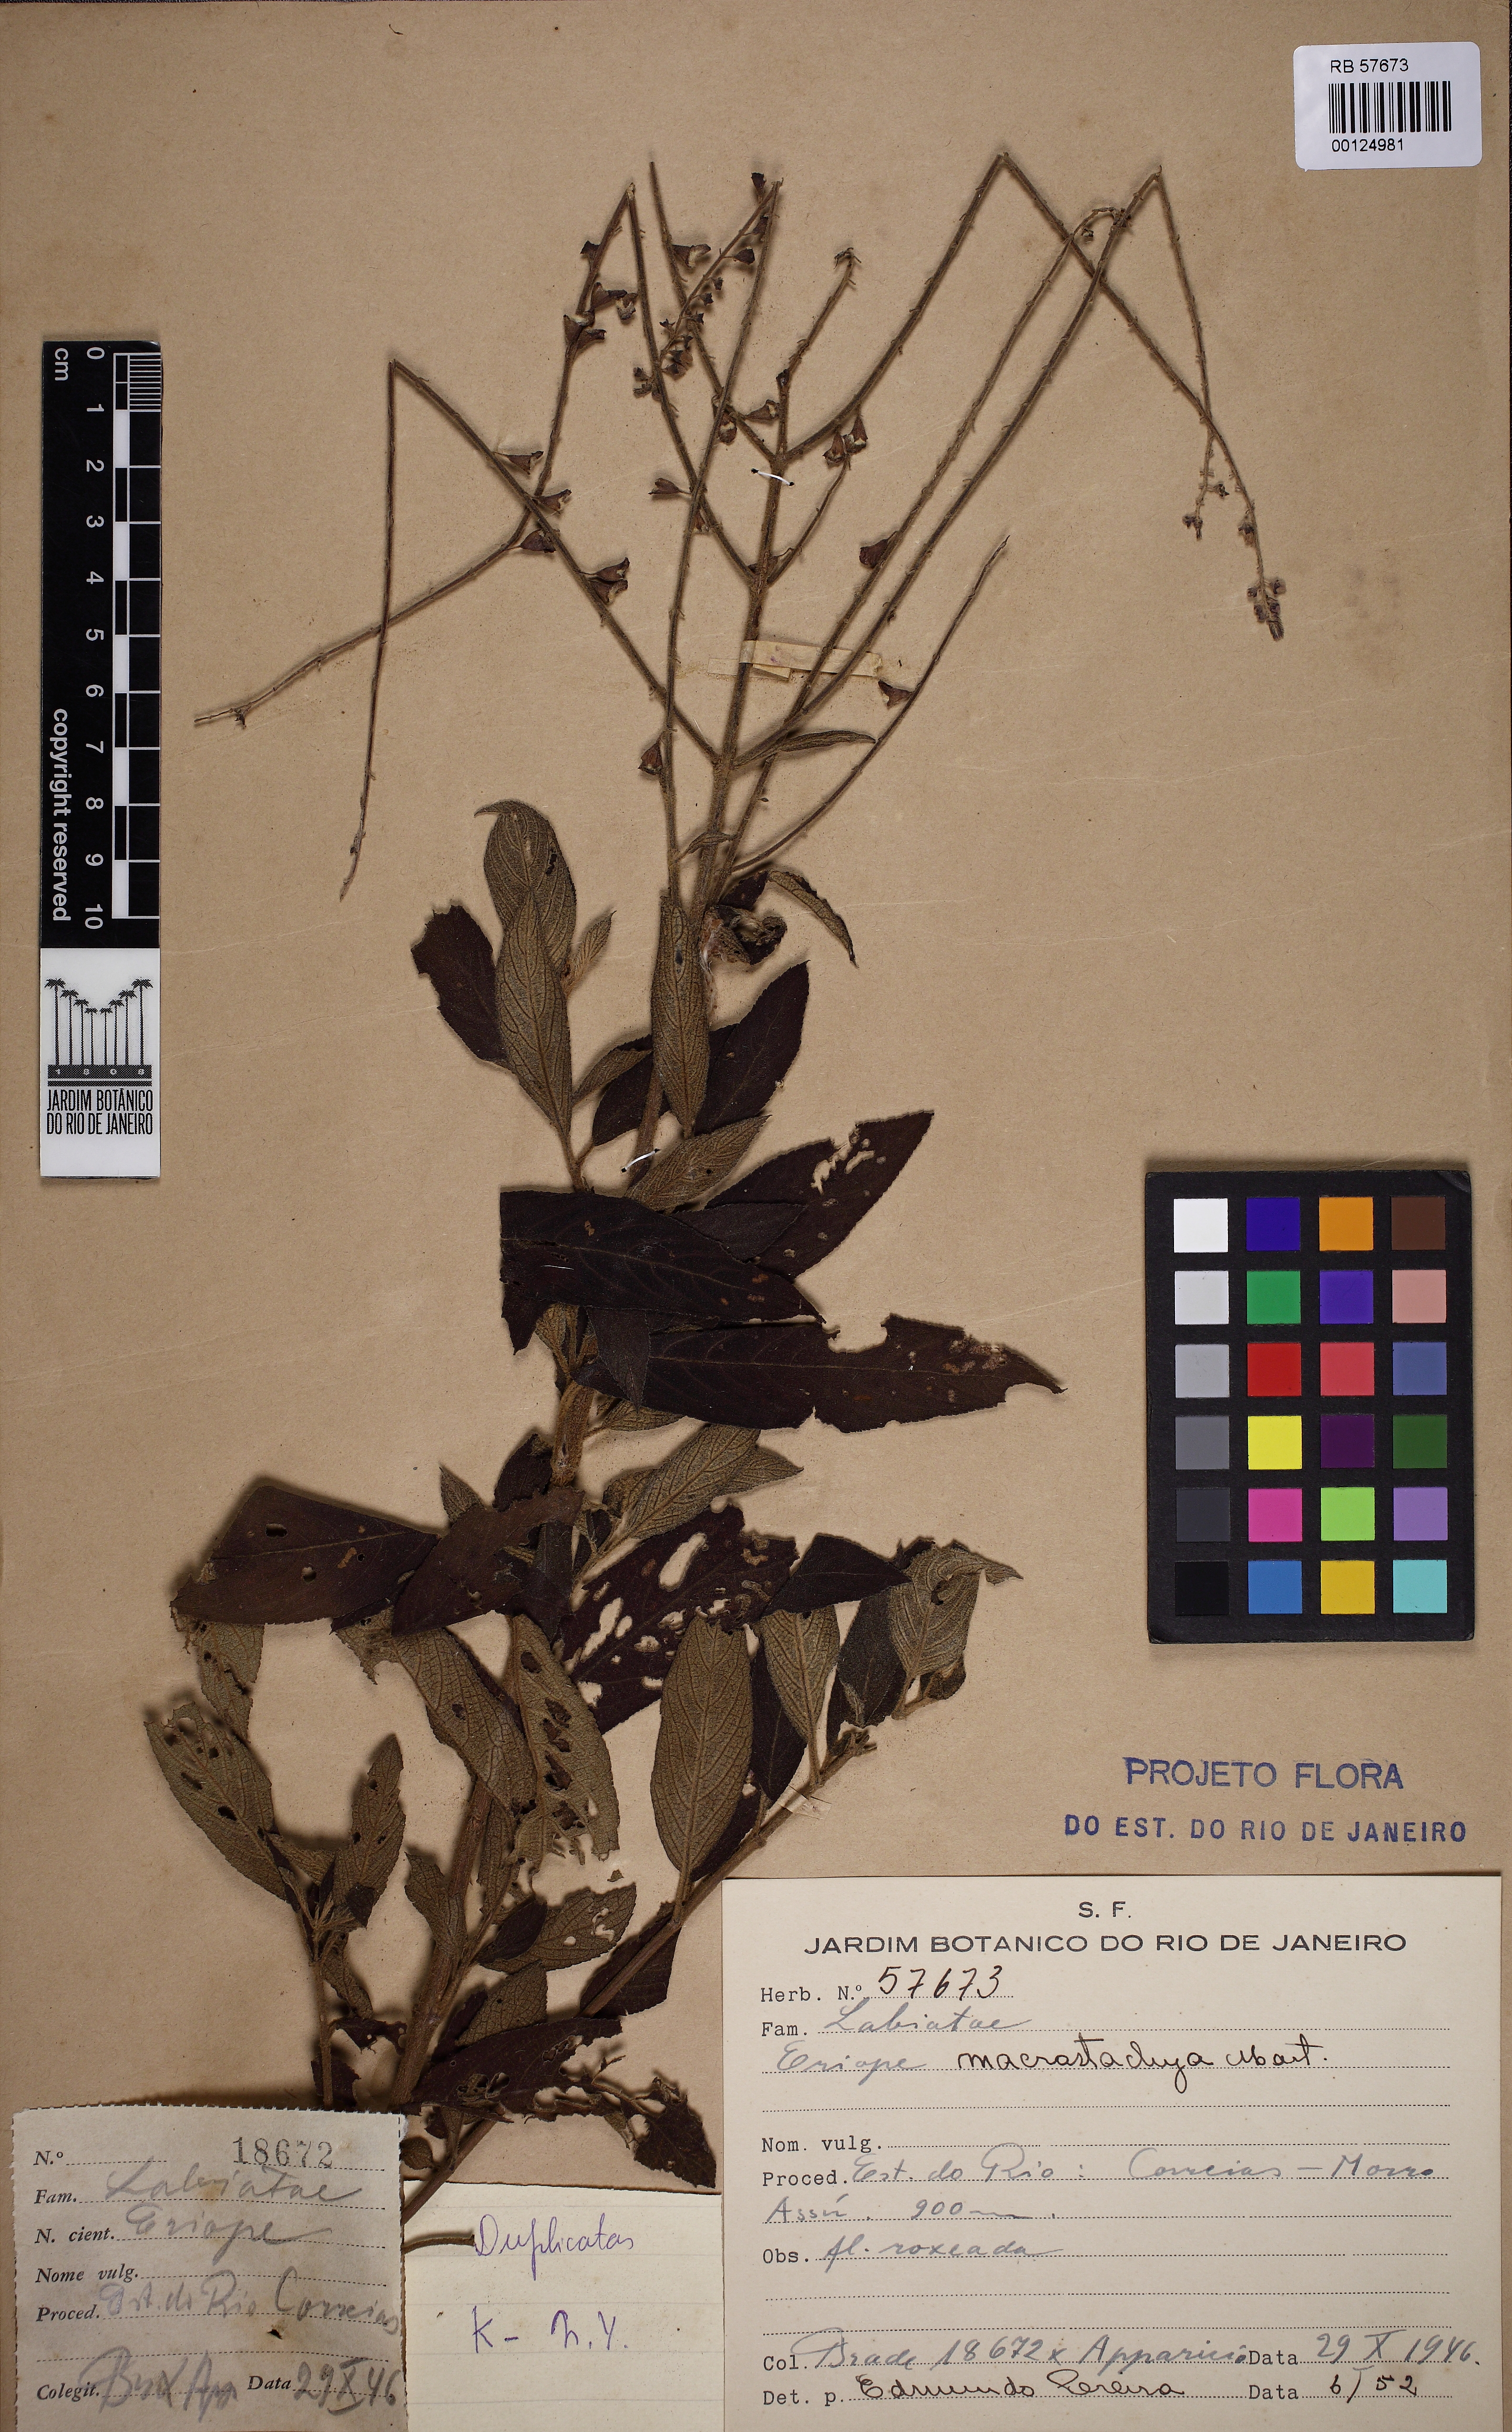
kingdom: Plantae
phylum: Tracheophyta
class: Magnoliopsida
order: Lamiales
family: Lamiaceae
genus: Eriope
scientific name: Eriope macrostachya
